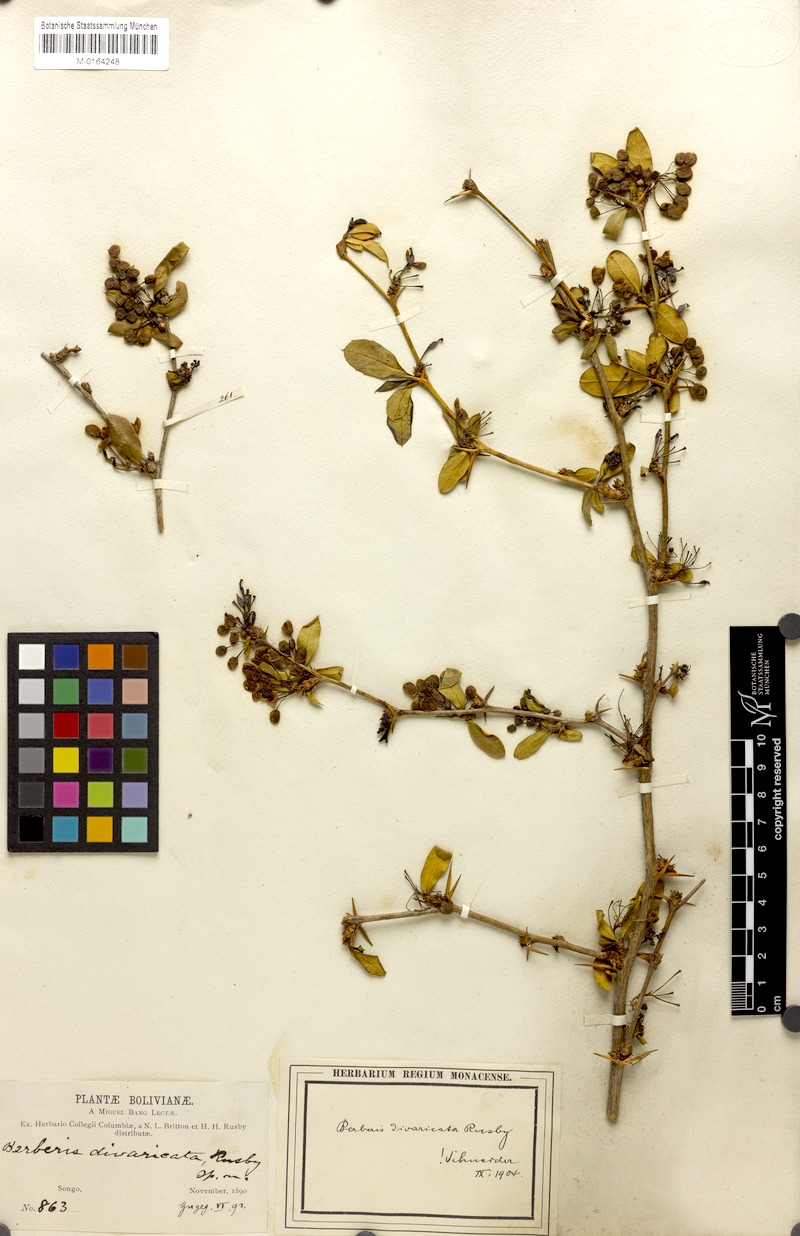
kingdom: Plantae
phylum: Tracheophyta
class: Magnoliopsida
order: Ranunculales
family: Berberidaceae
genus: Berberis
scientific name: Berberis commutata
